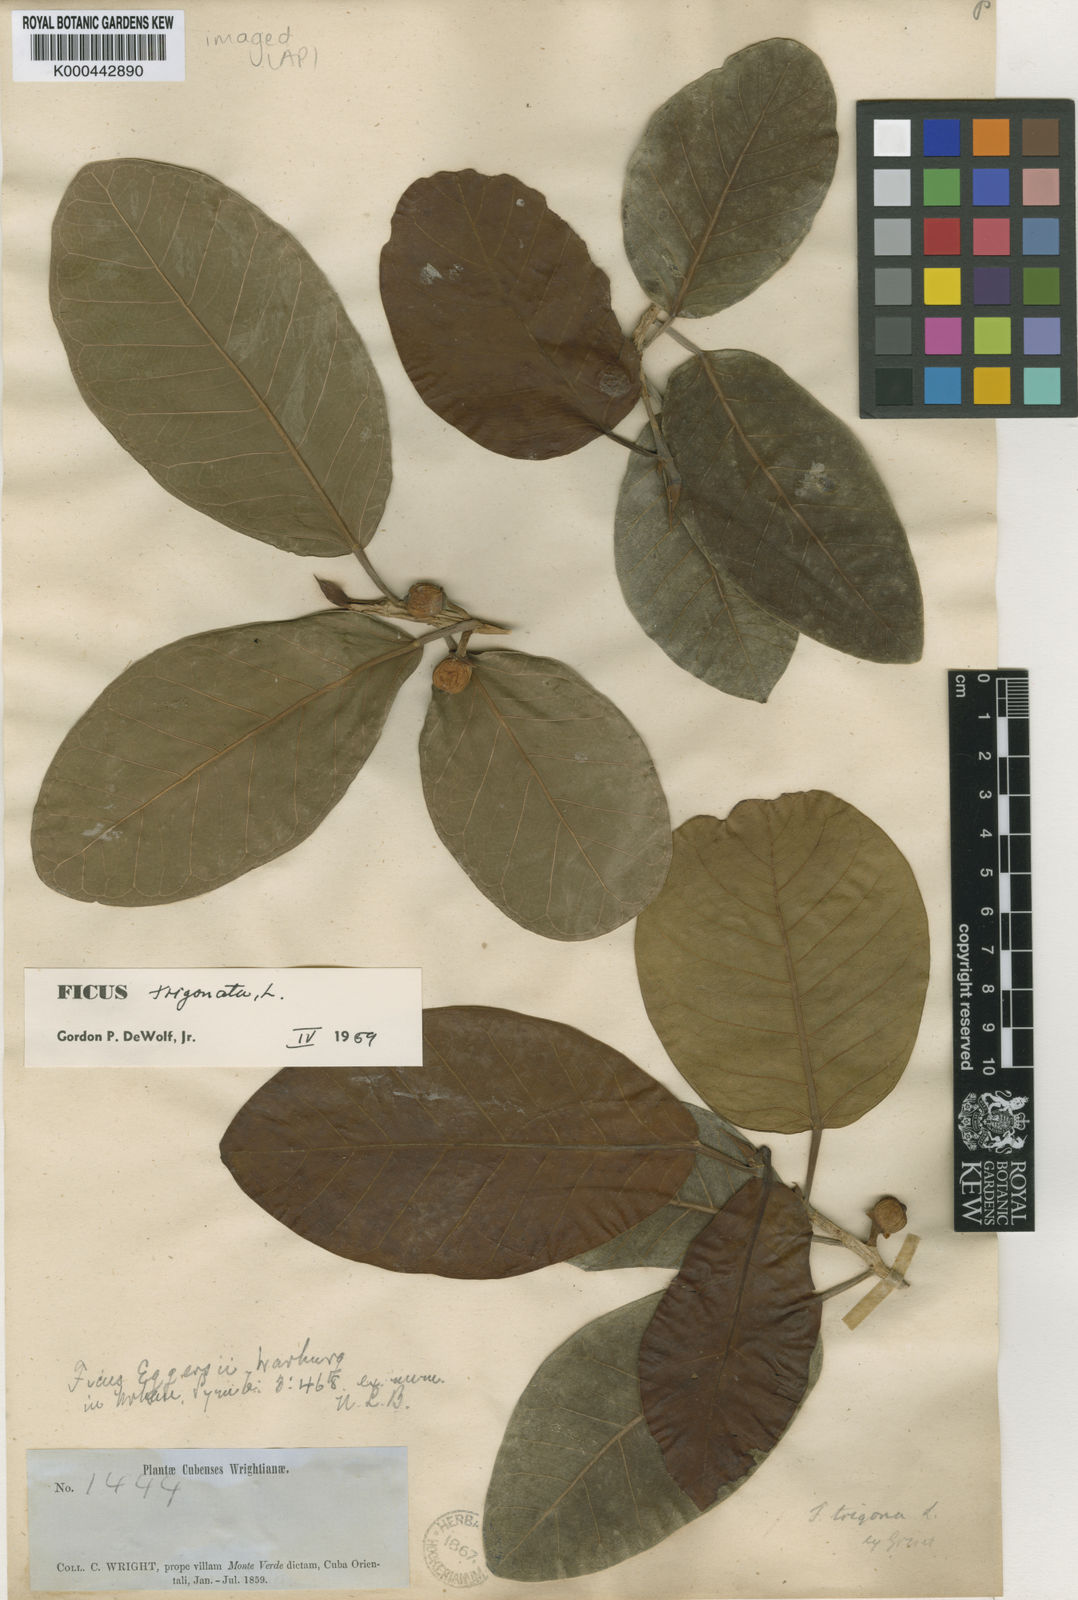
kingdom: Plantae
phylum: Tracheophyta
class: Magnoliopsida
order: Rosales
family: Moraceae
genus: Ficus
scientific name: Ficus trigonata
